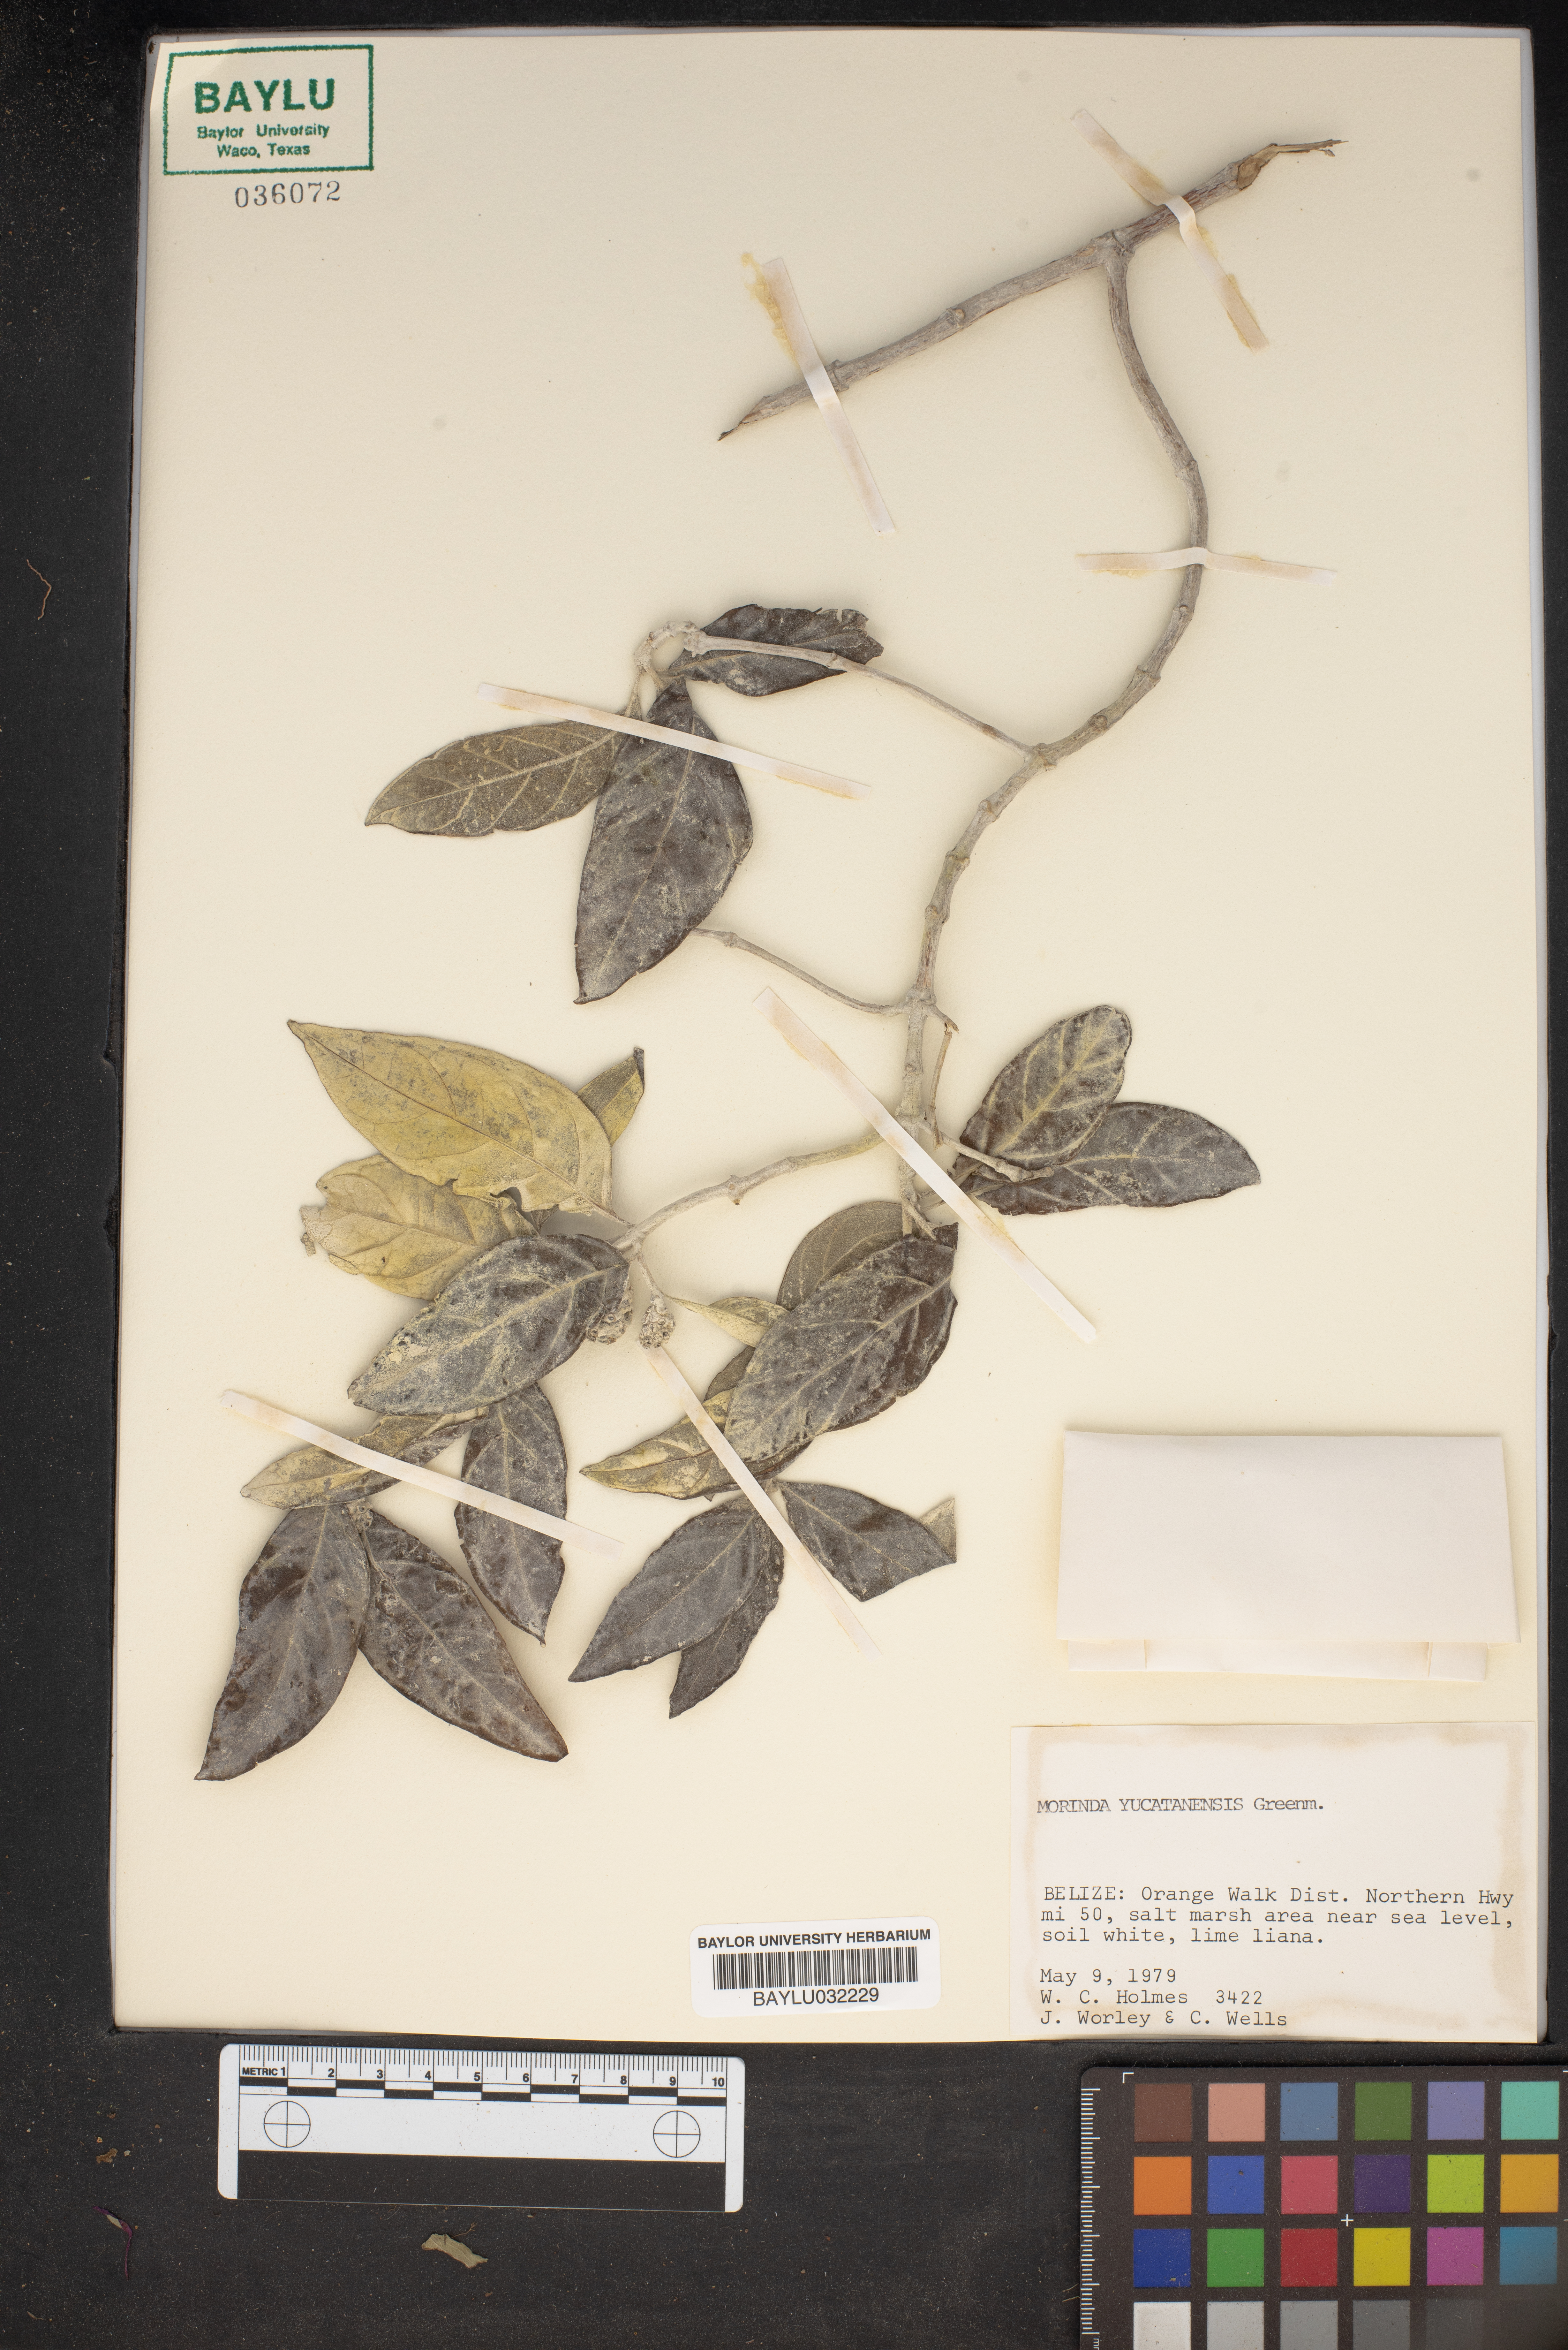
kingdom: Plantae
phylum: Tracheophyta
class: Magnoliopsida
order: Gentianales
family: Rubiaceae
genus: Morinda
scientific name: Morinda royoc
